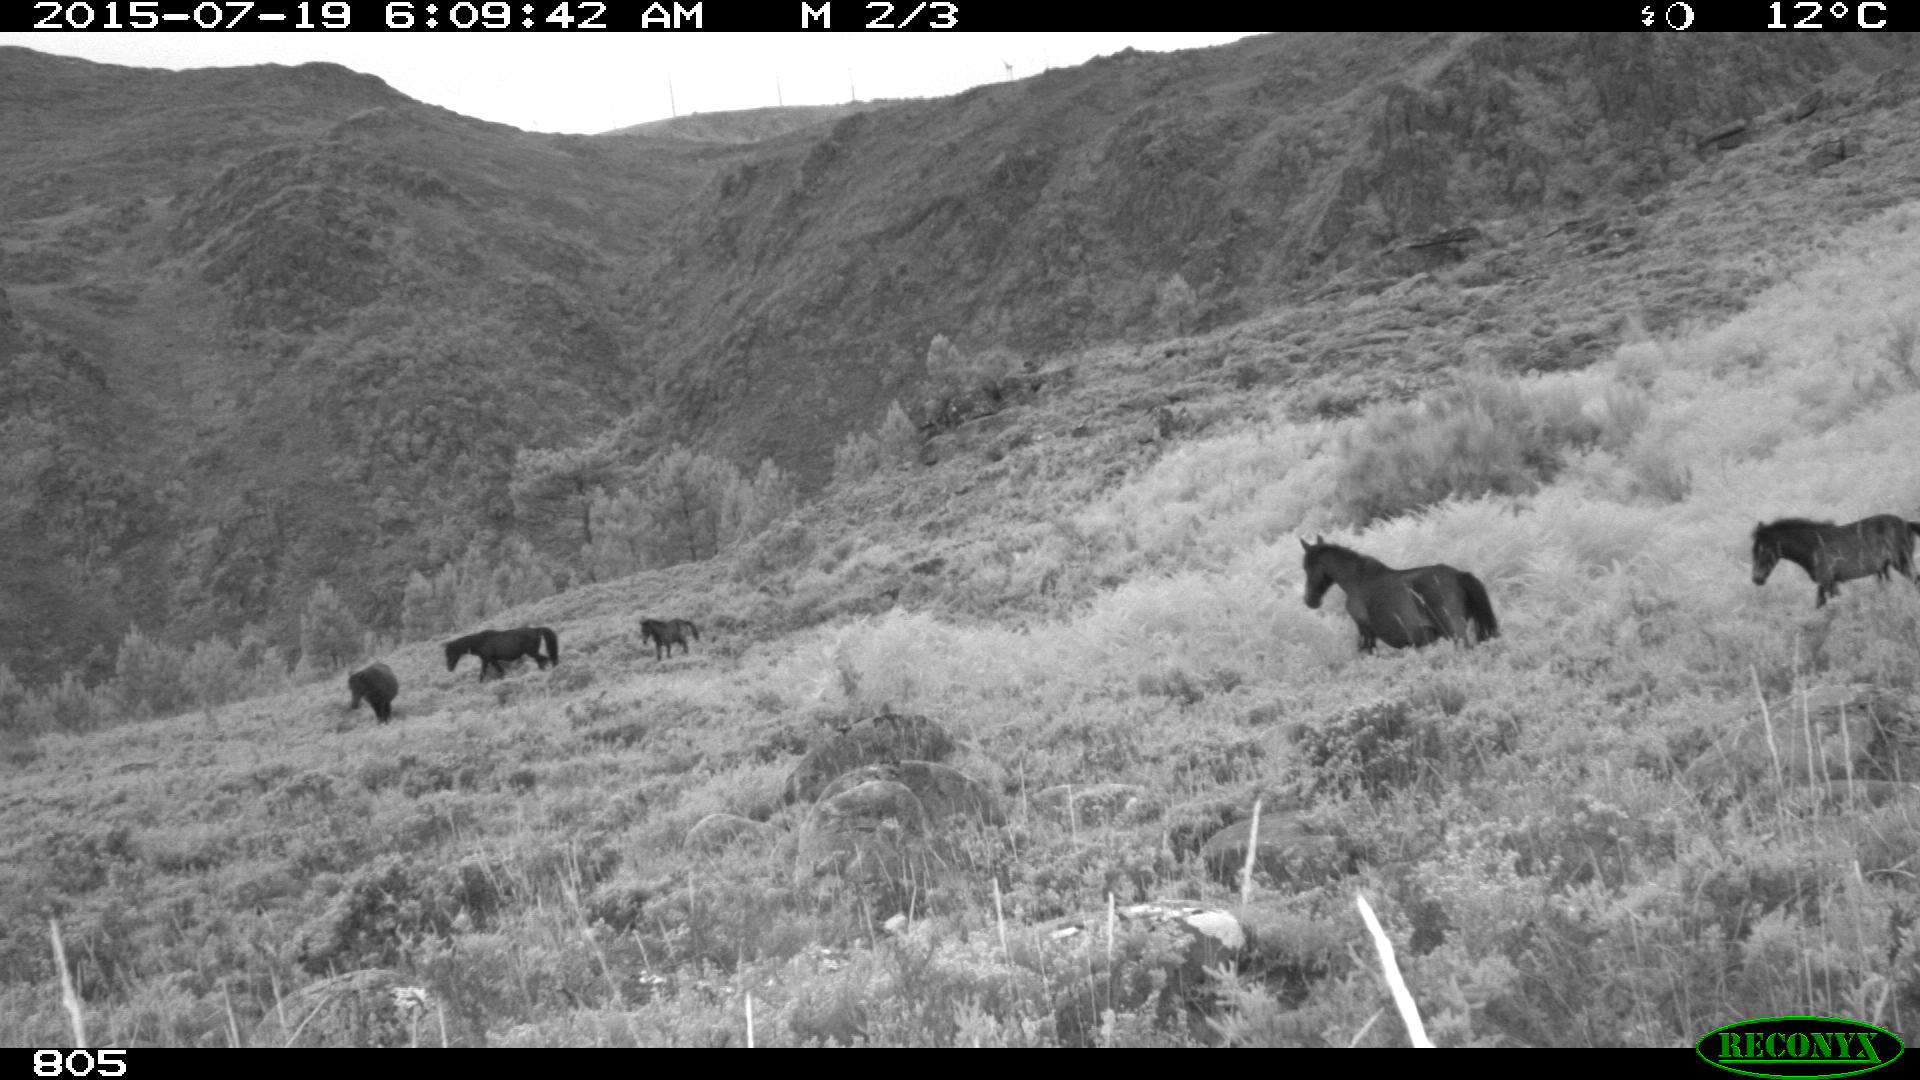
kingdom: Animalia
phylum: Chordata
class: Mammalia
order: Perissodactyla
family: Equidae
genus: Equus
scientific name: Equus caballus
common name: Horse
